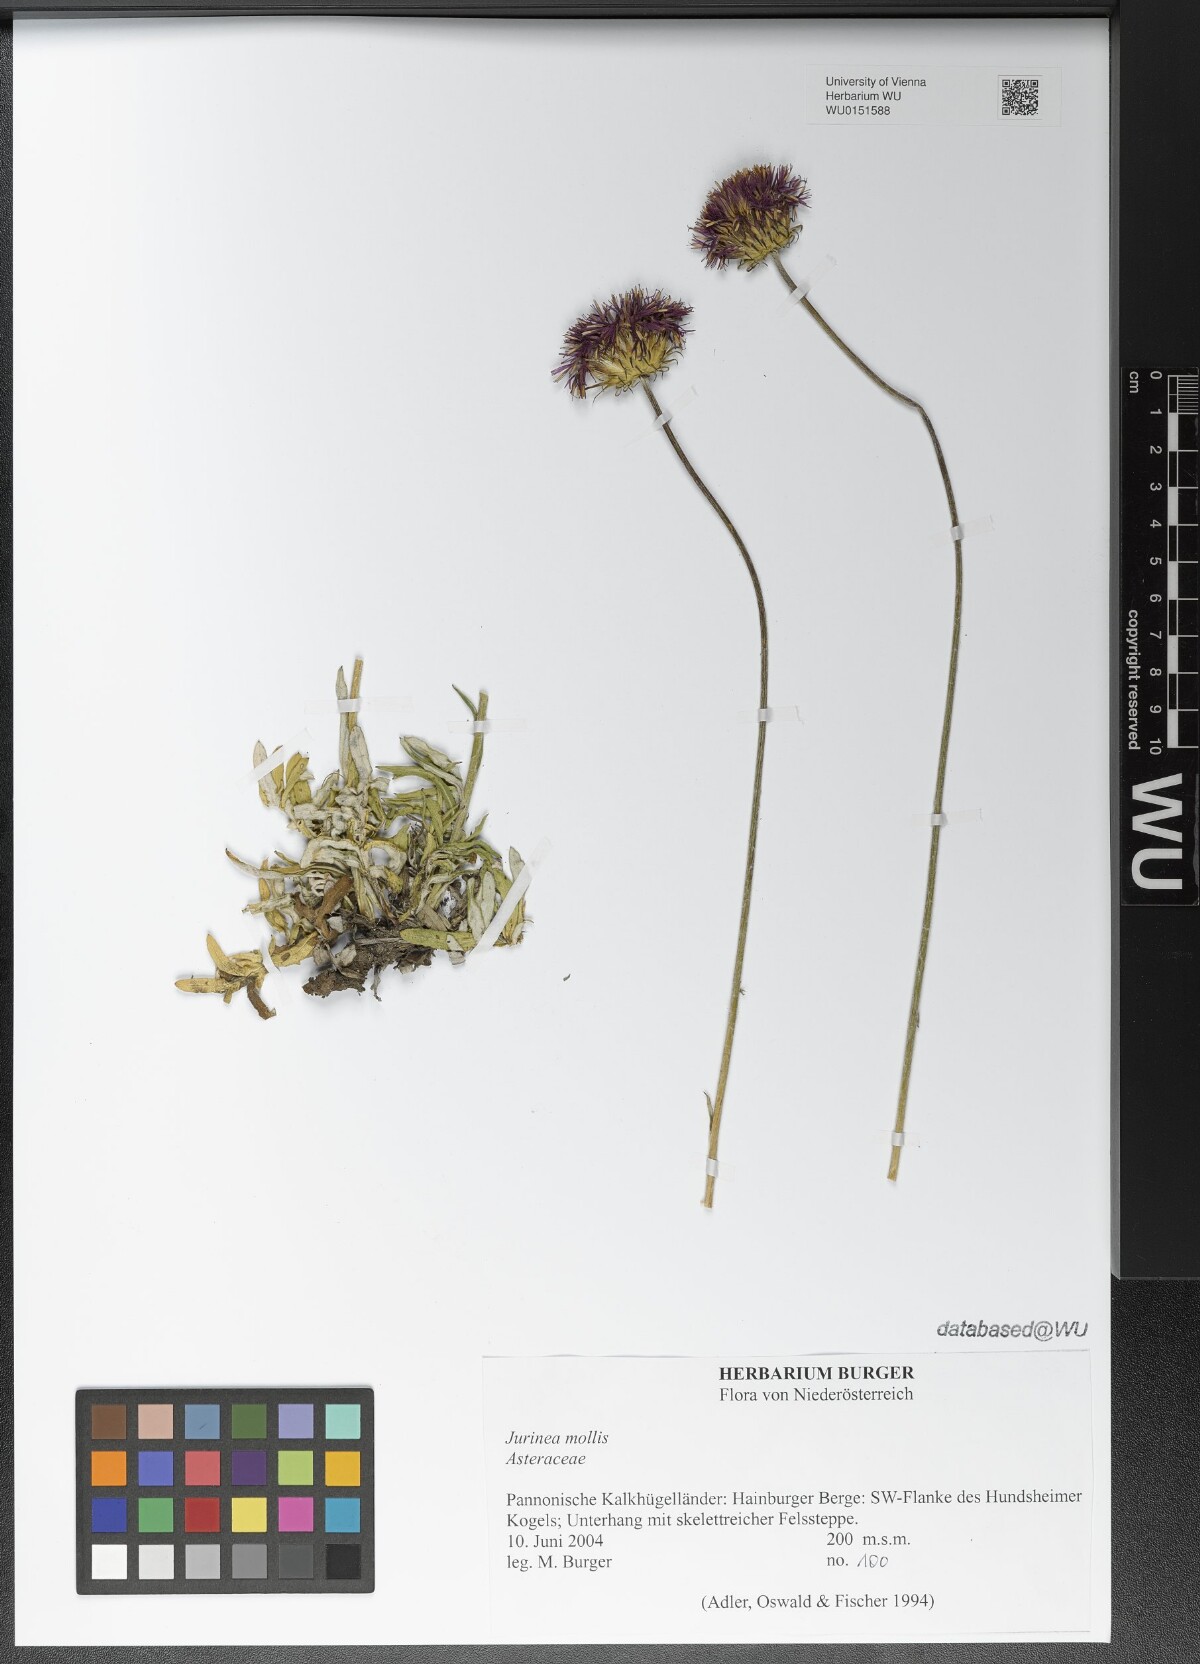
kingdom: Plantae
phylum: Tracheophyta
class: Magnoliopsida
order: Asterales
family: Asteraceae
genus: Jurinea
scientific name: Jurinea mollis
